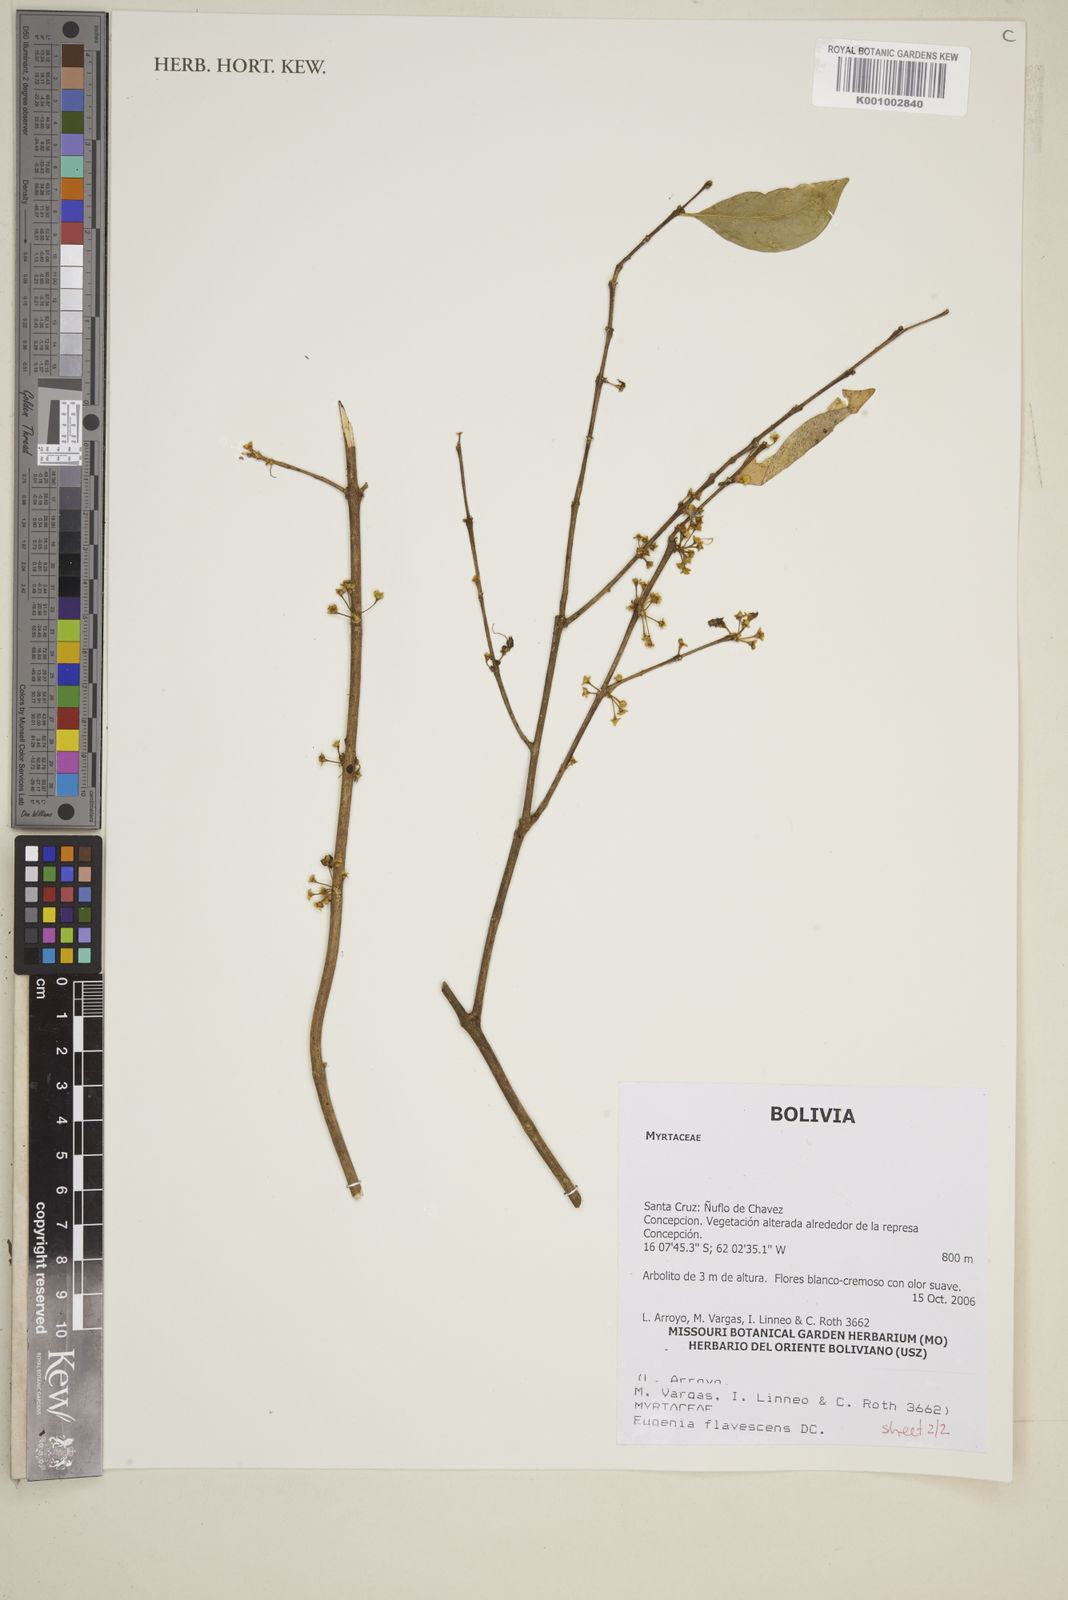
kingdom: Plantae
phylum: Tracheophyta
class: Magnoliopsida
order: Myrtales
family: Myrtaceae
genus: Eugenia
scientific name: Eugenia flavescens
